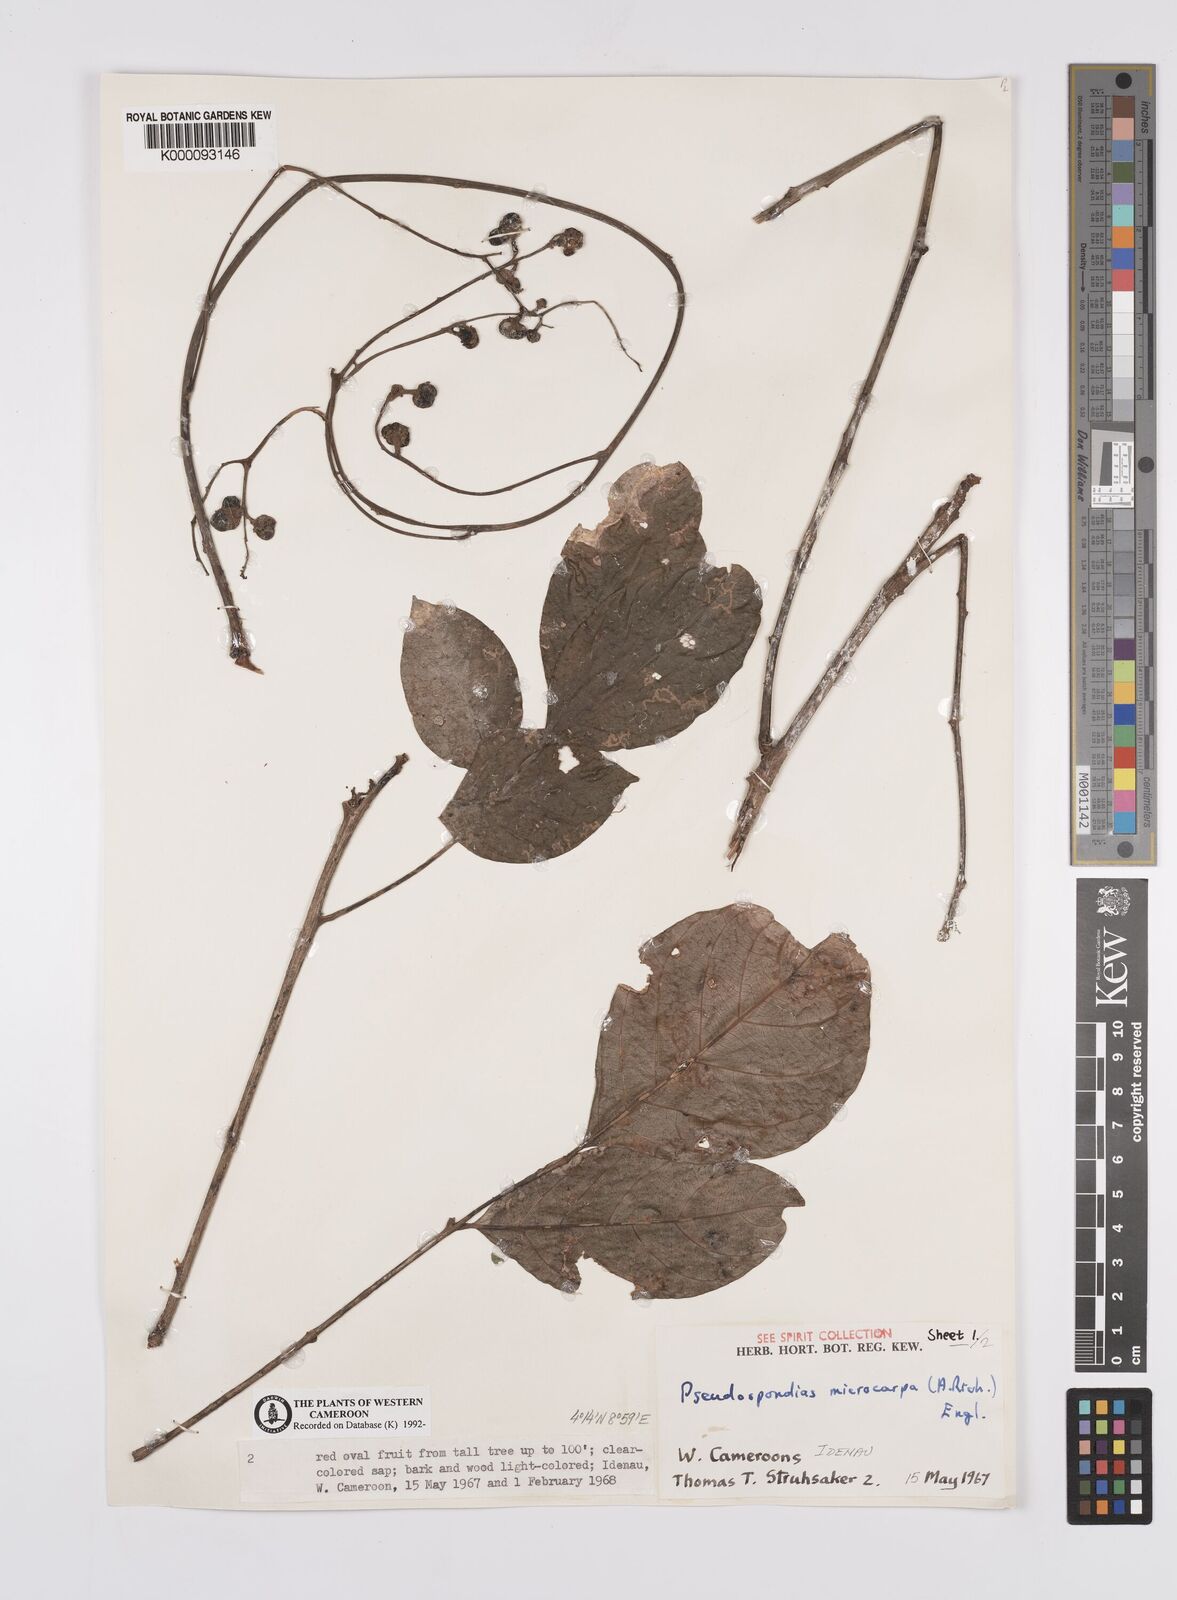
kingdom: Plantae
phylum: Tracheophyta
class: Magnoliopsida
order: Sapindales
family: Anacardiaceae
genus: Pseudospondias
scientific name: Pseudospondias microcarpa
